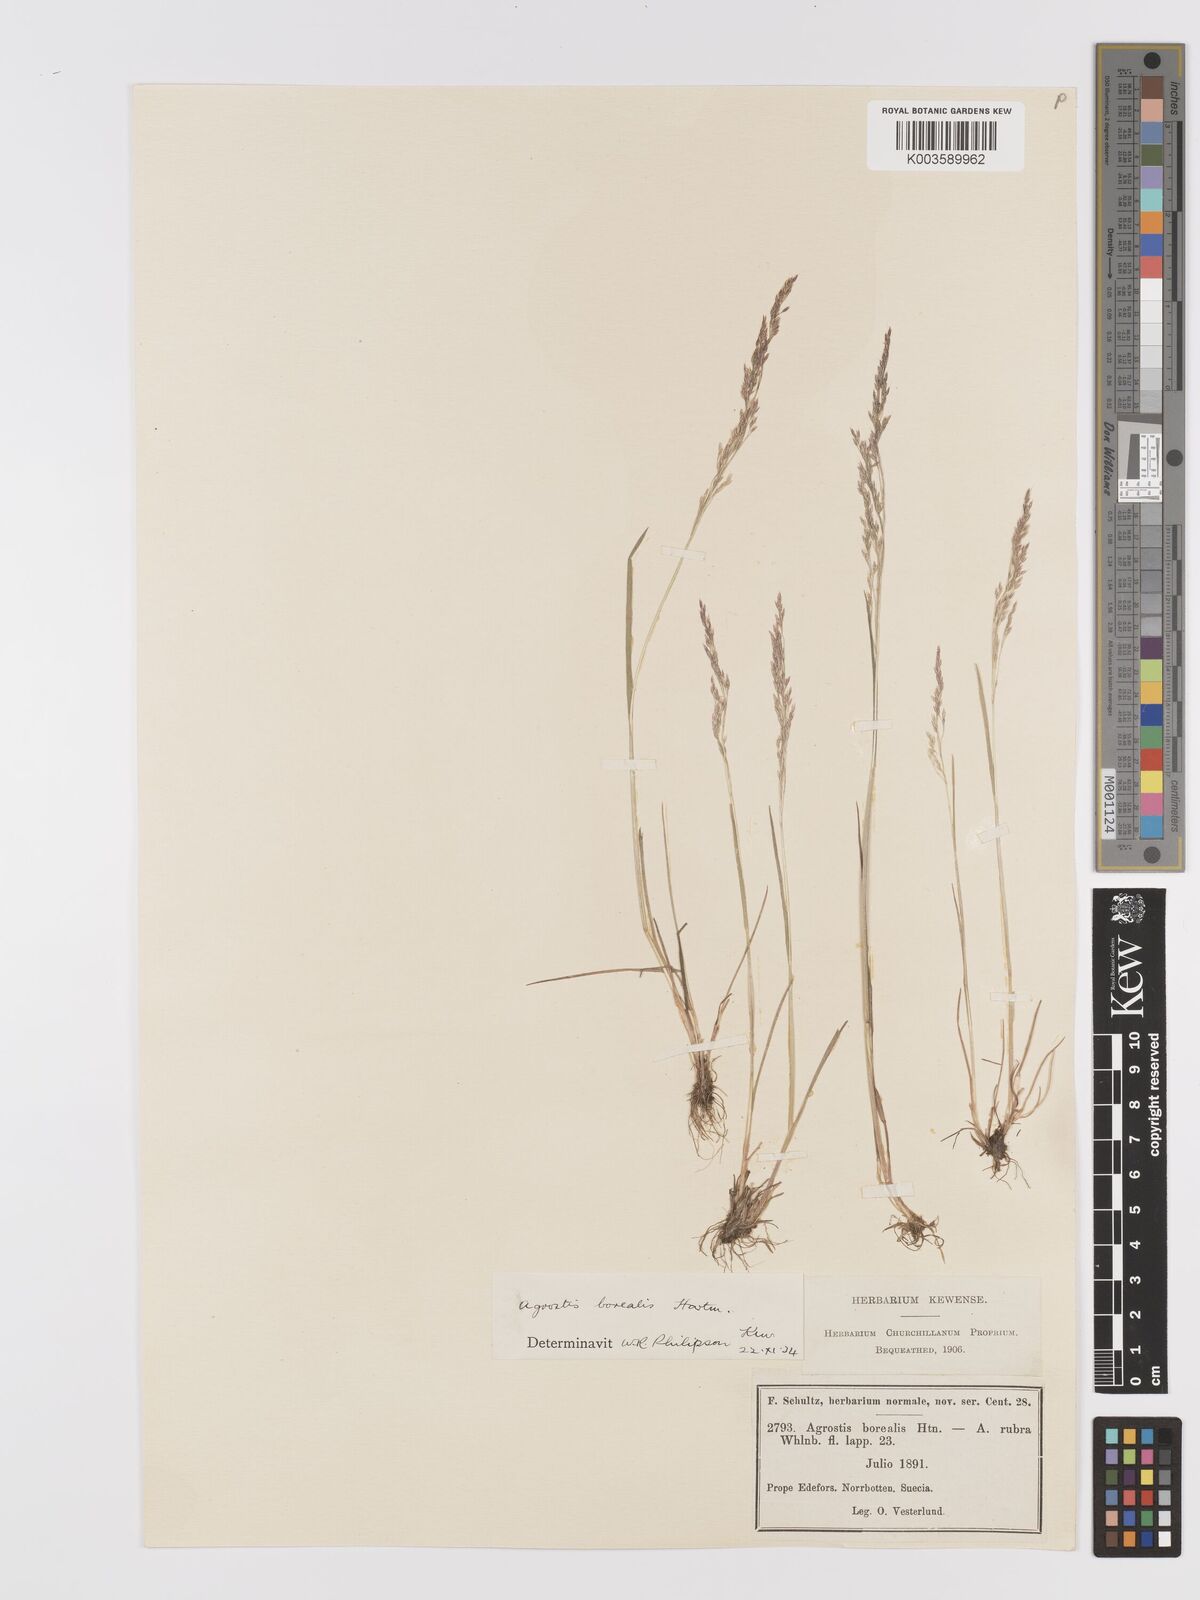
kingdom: Plantae
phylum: Tracheophyta
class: Liliopsida
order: Poales
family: Poaceae
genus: Agrostis
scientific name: Agrostis mertensii
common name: Northern bent
